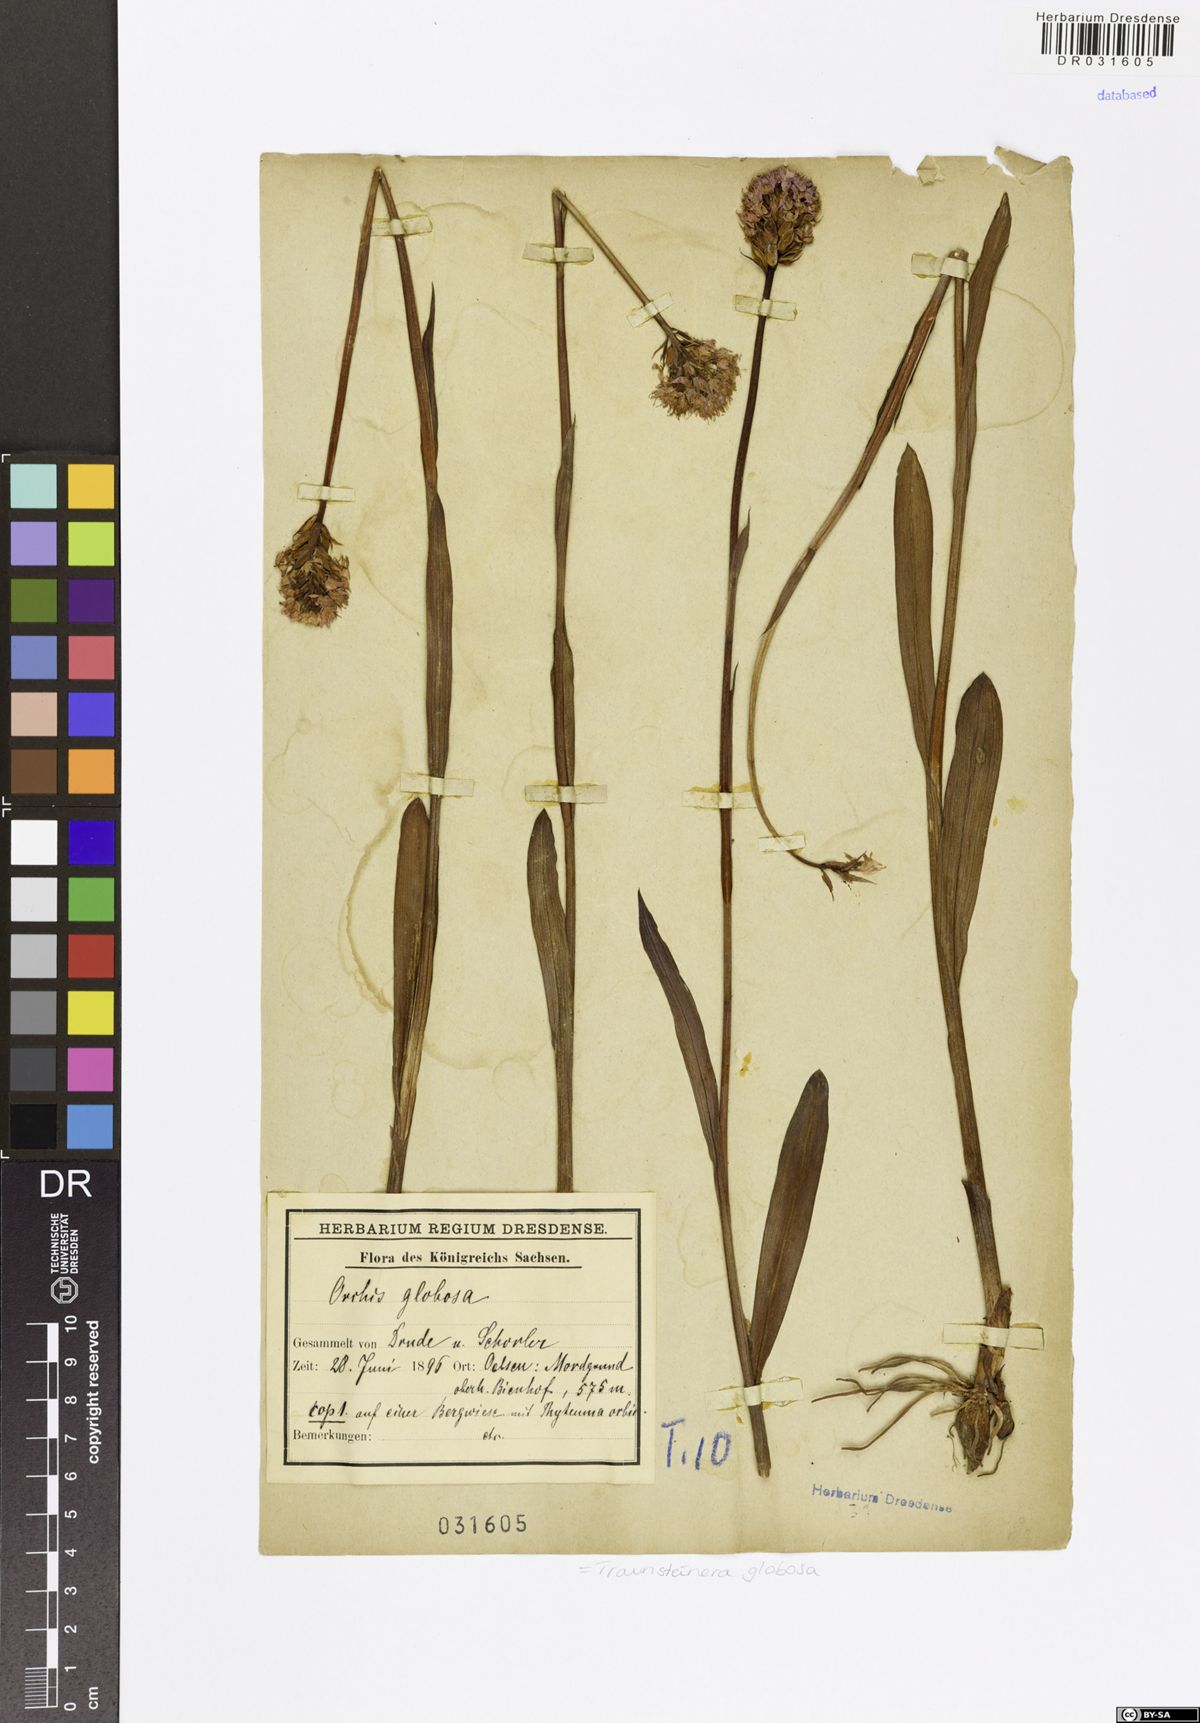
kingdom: Plantae
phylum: Tracheophyta
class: Liliopsida
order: Asparagales
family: Orchidaceae
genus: Traunsteinera
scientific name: Traunsteinera globosa
